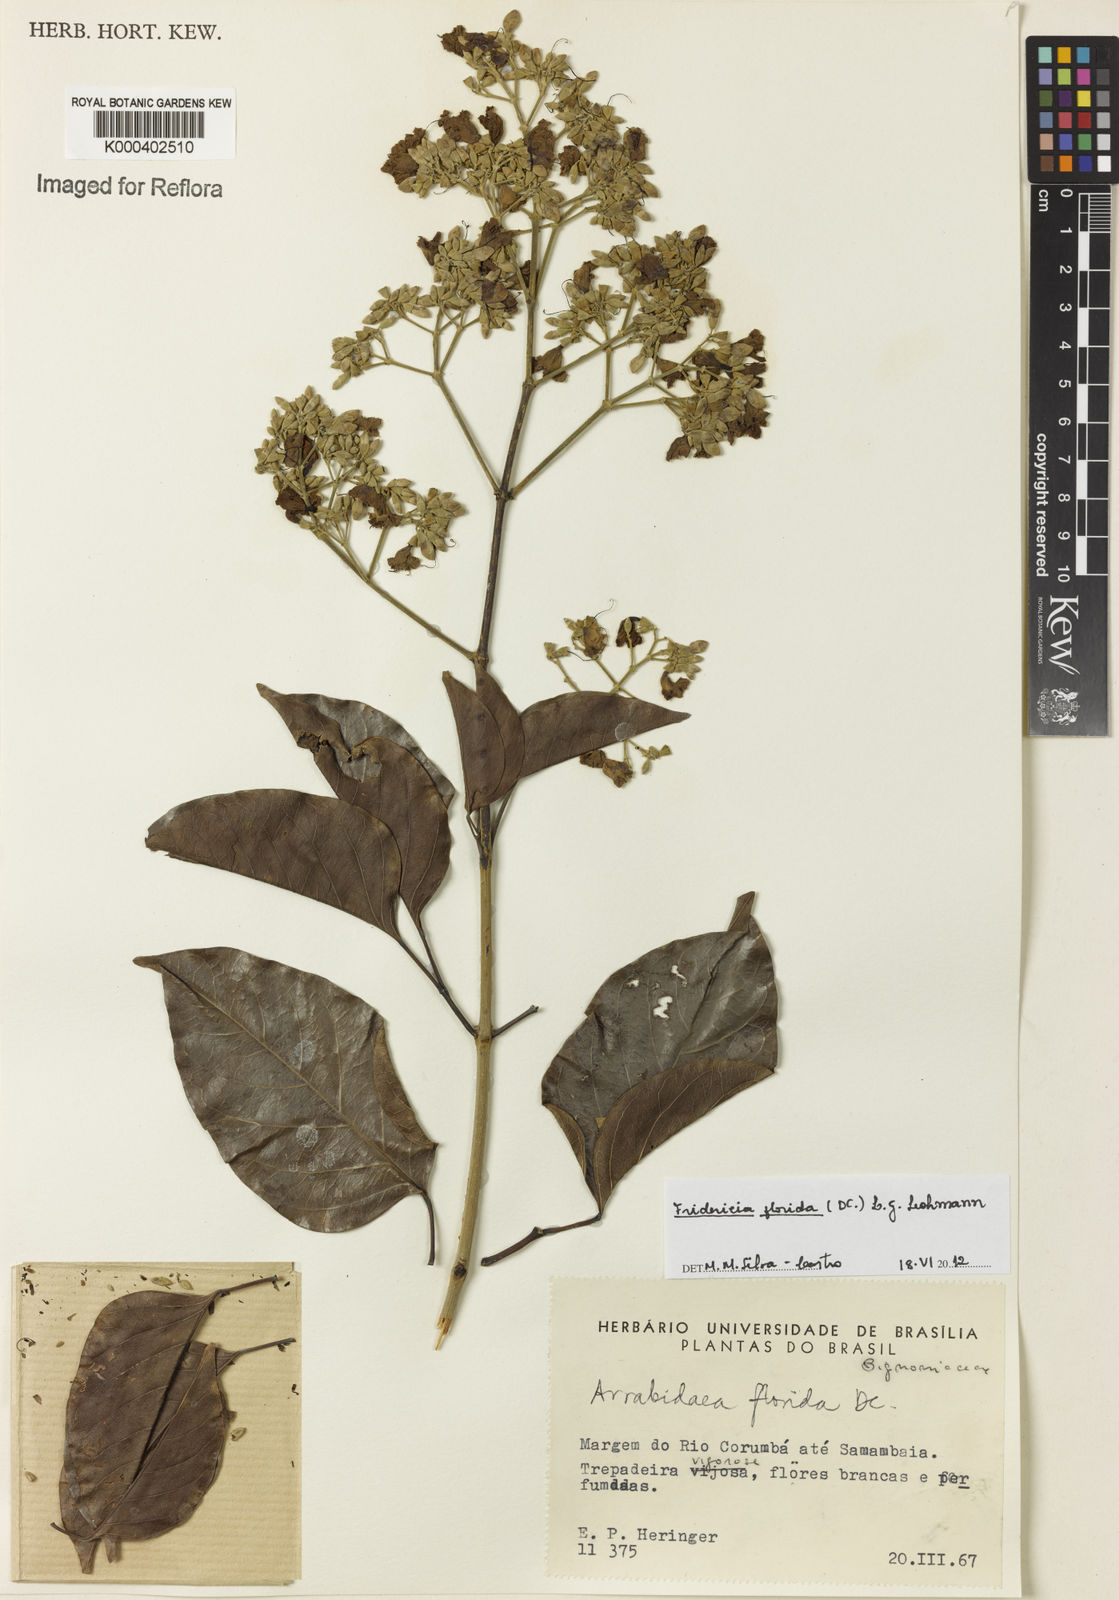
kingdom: Plantae
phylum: Tracheophyta
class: Magnoliopsida
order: Lamiales
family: Bignoniaceae
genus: Fridericia
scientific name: Fridericia florida
